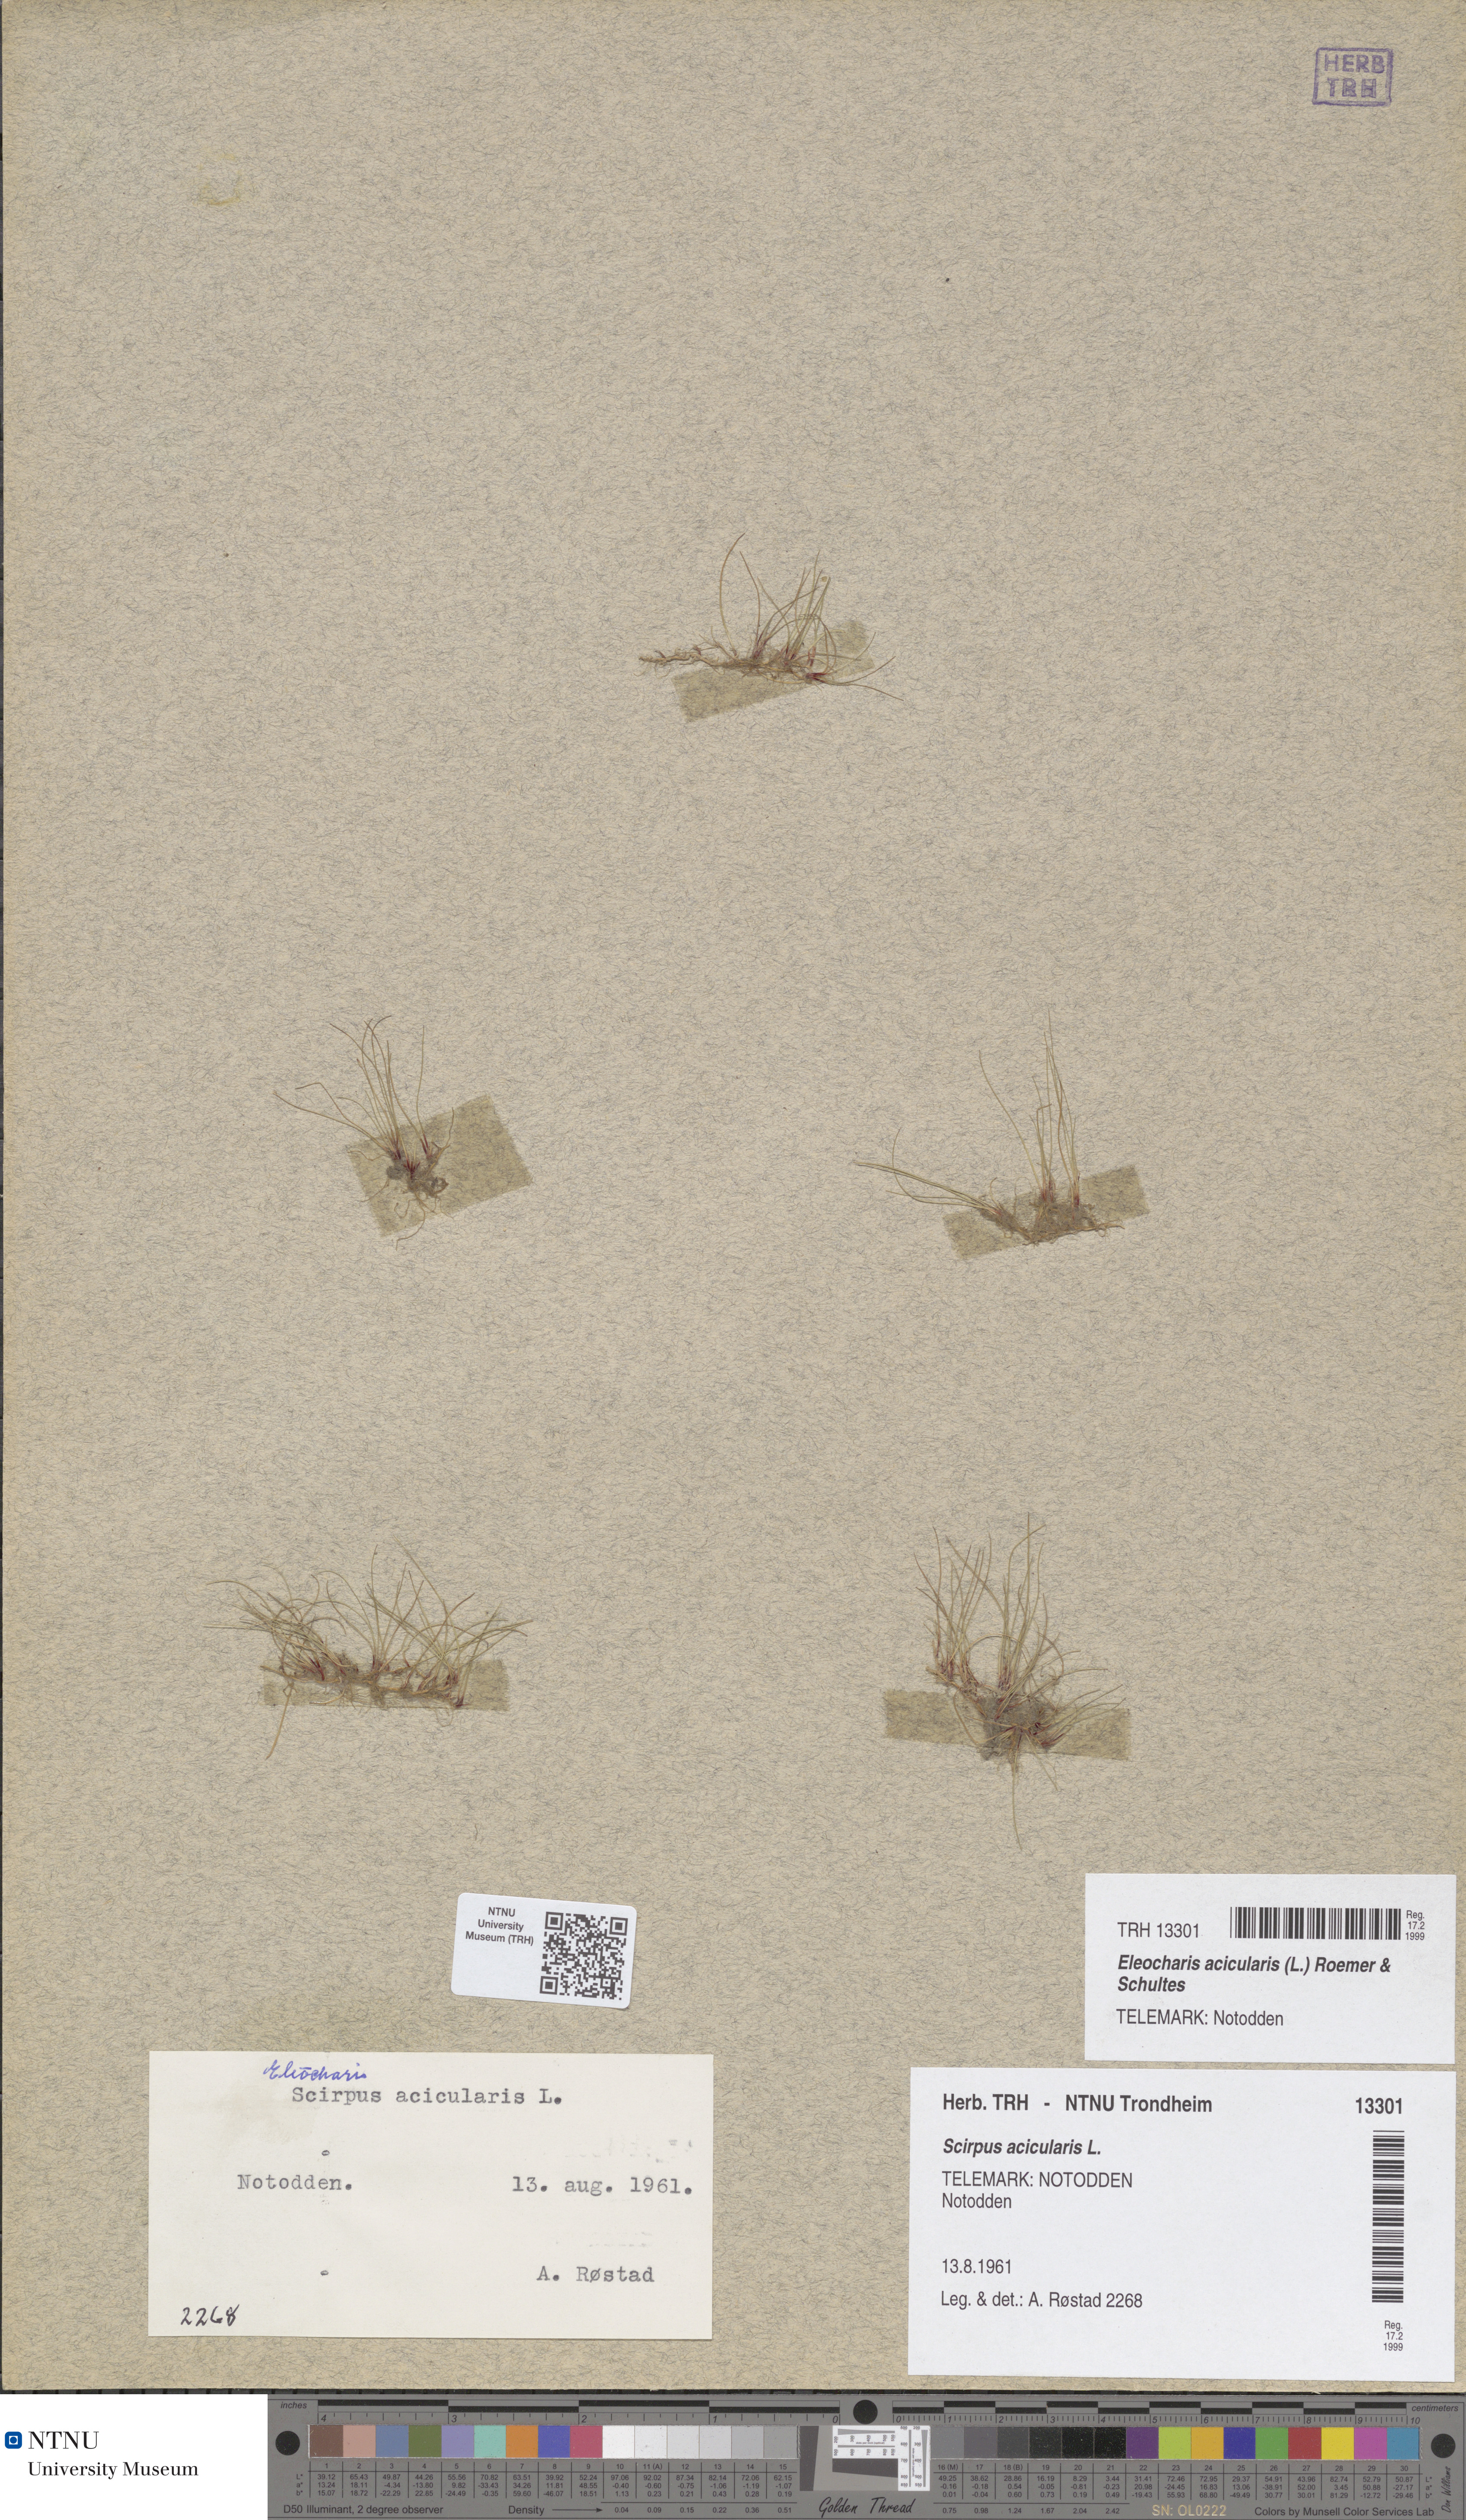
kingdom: Plantae
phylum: Tracheophyta
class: Liliopsida
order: Poales
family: Cyperaceae
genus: Eleocharis
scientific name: Eleocharis acicularis
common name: Needle spike-rush
